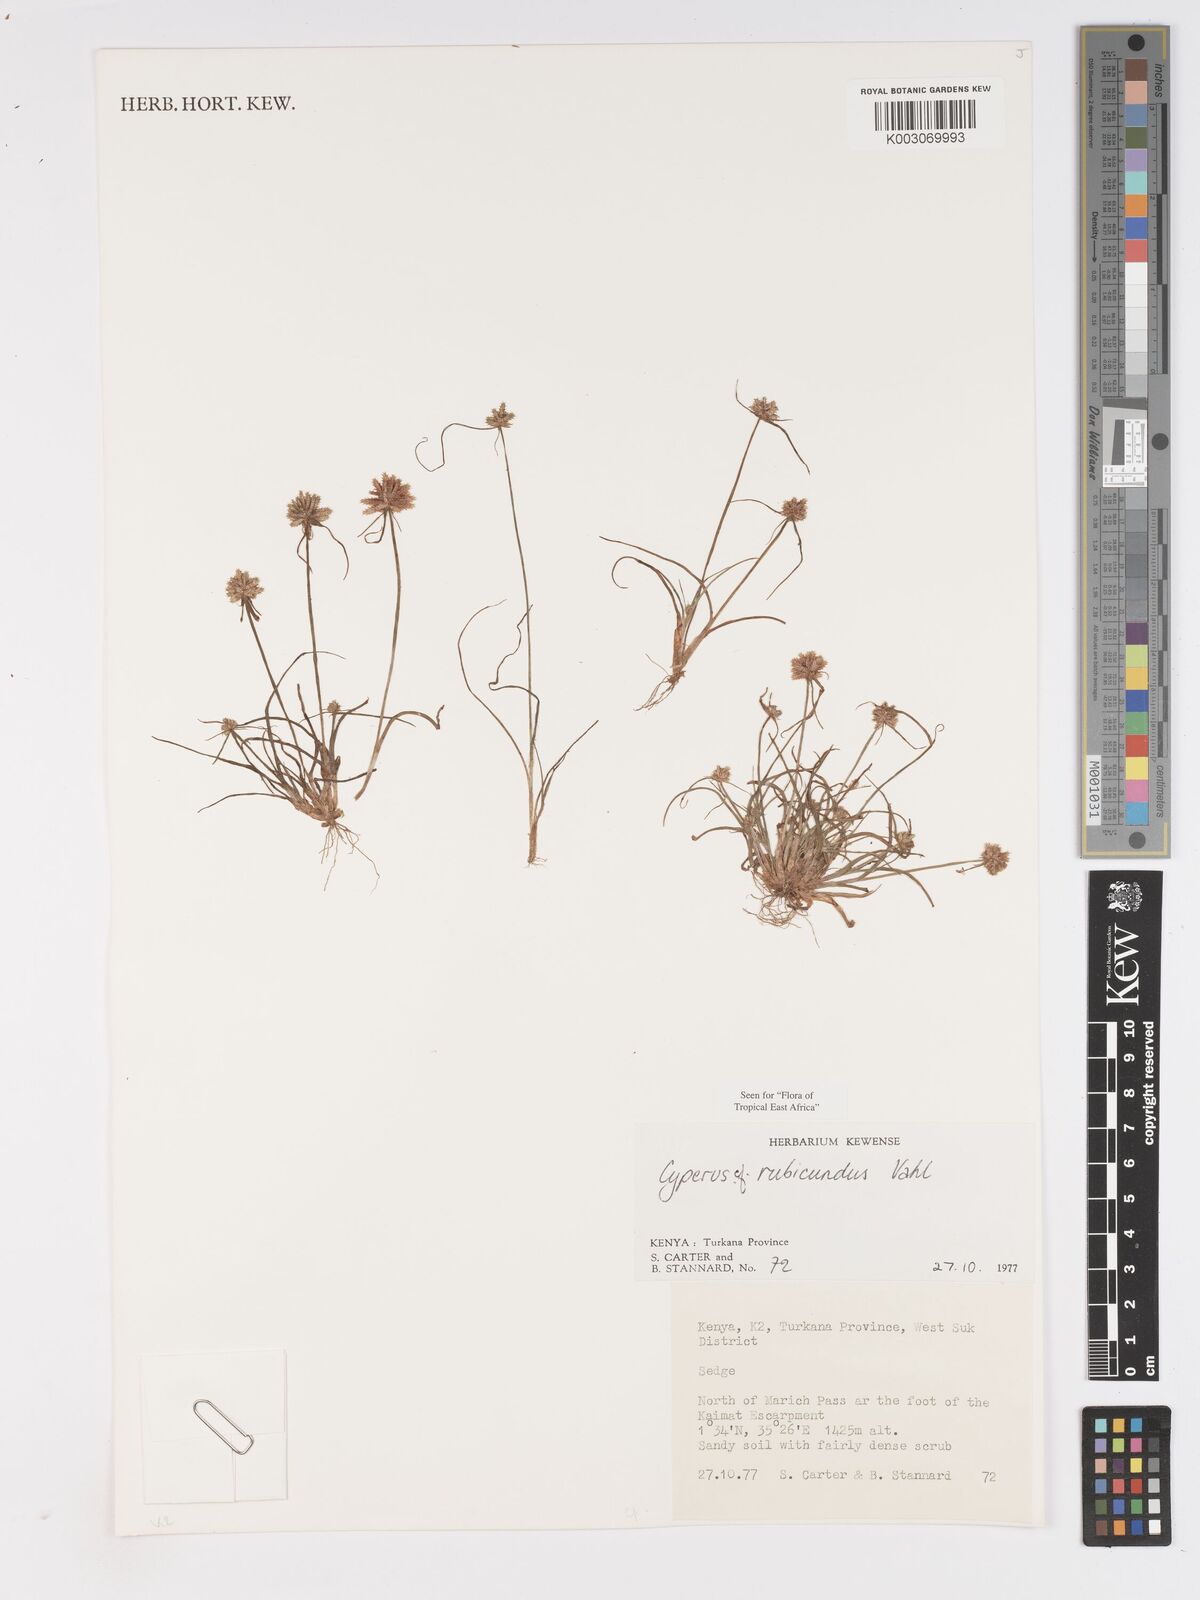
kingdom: Plantae
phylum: Tracheophyta
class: Liliopsida
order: Poales
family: Cyperaceae
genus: Cyperus
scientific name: Cyperus rubicundus
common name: Coco-grass
